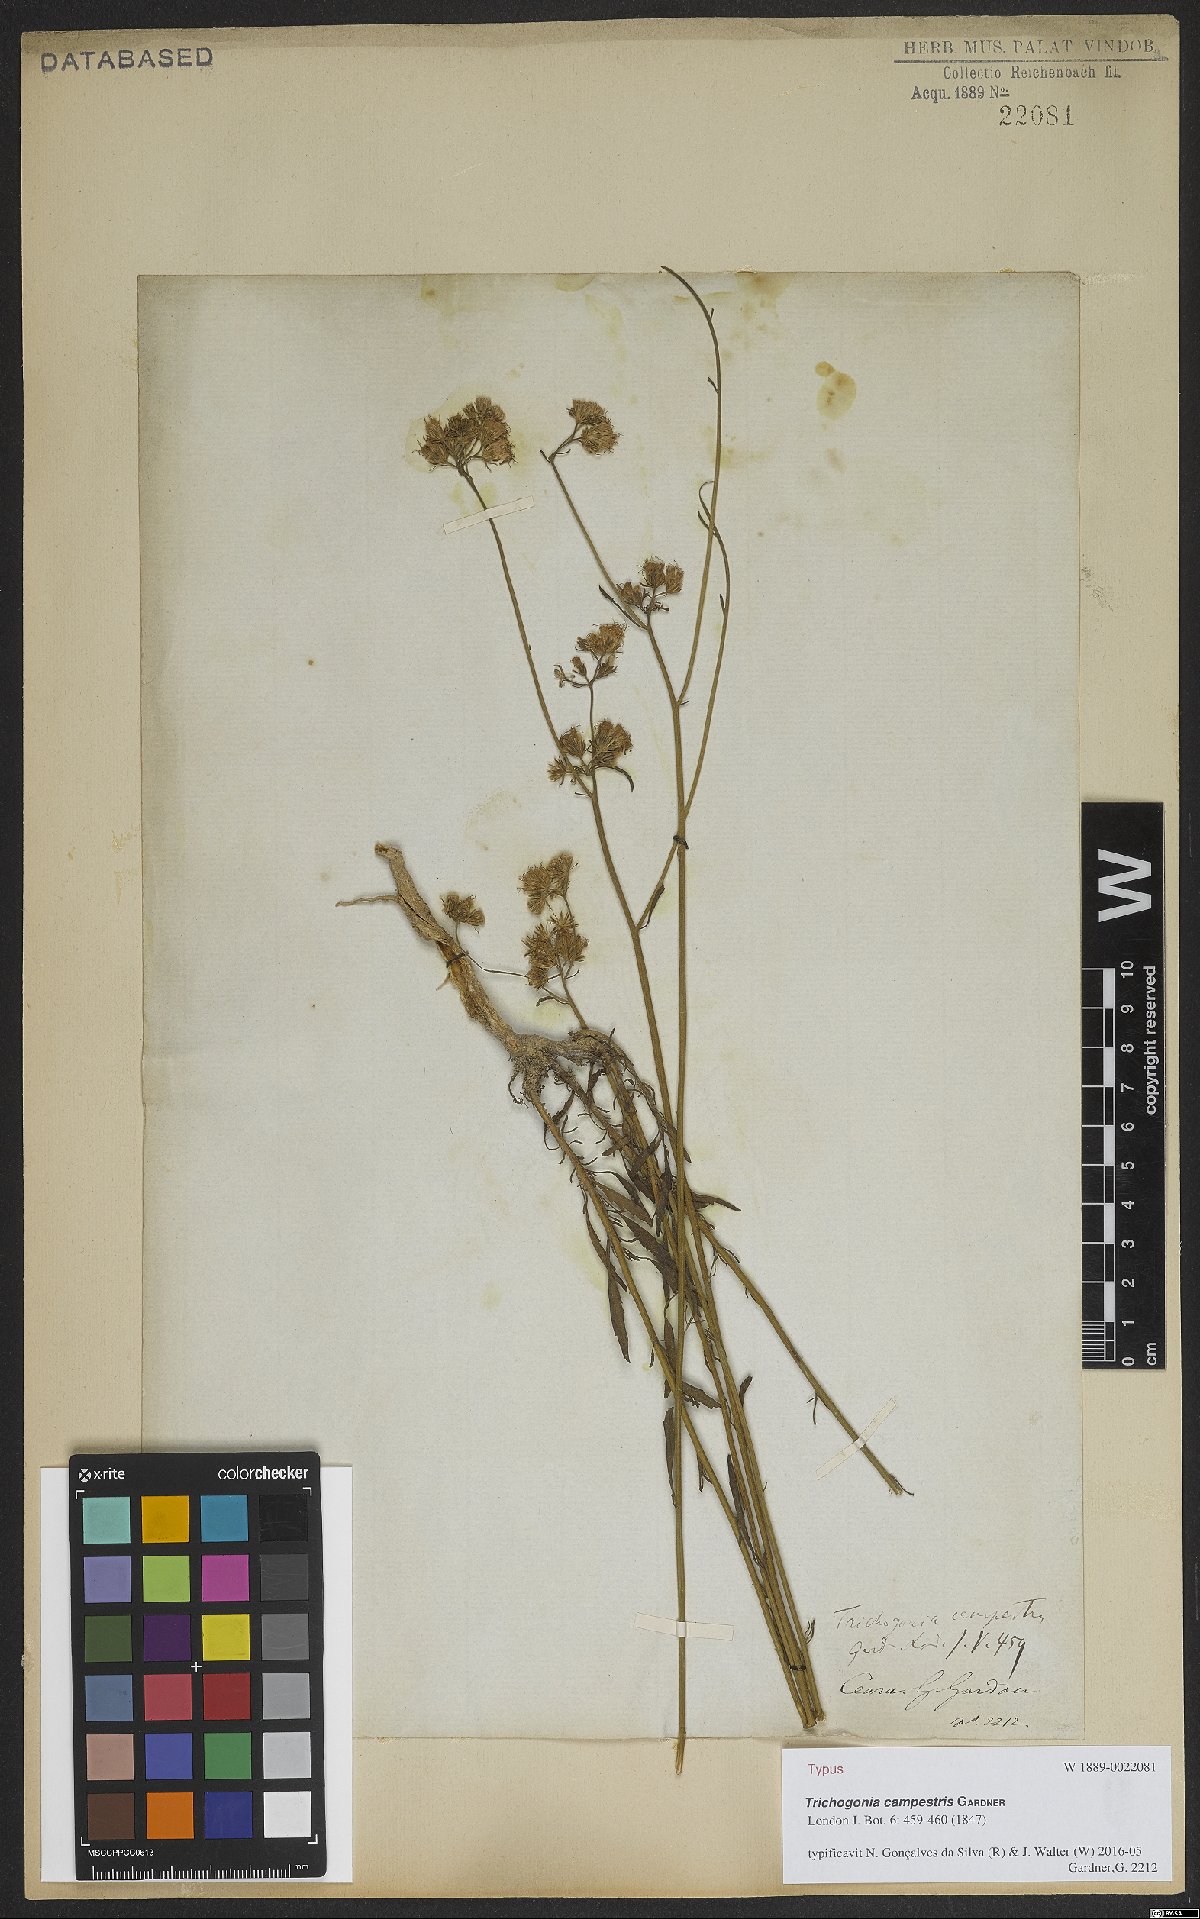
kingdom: Plantae
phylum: Tracheophyta
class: Magnoliopsida
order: Asterales
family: Asteraceae
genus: Trichogonia
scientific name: Trichogonia campestris
